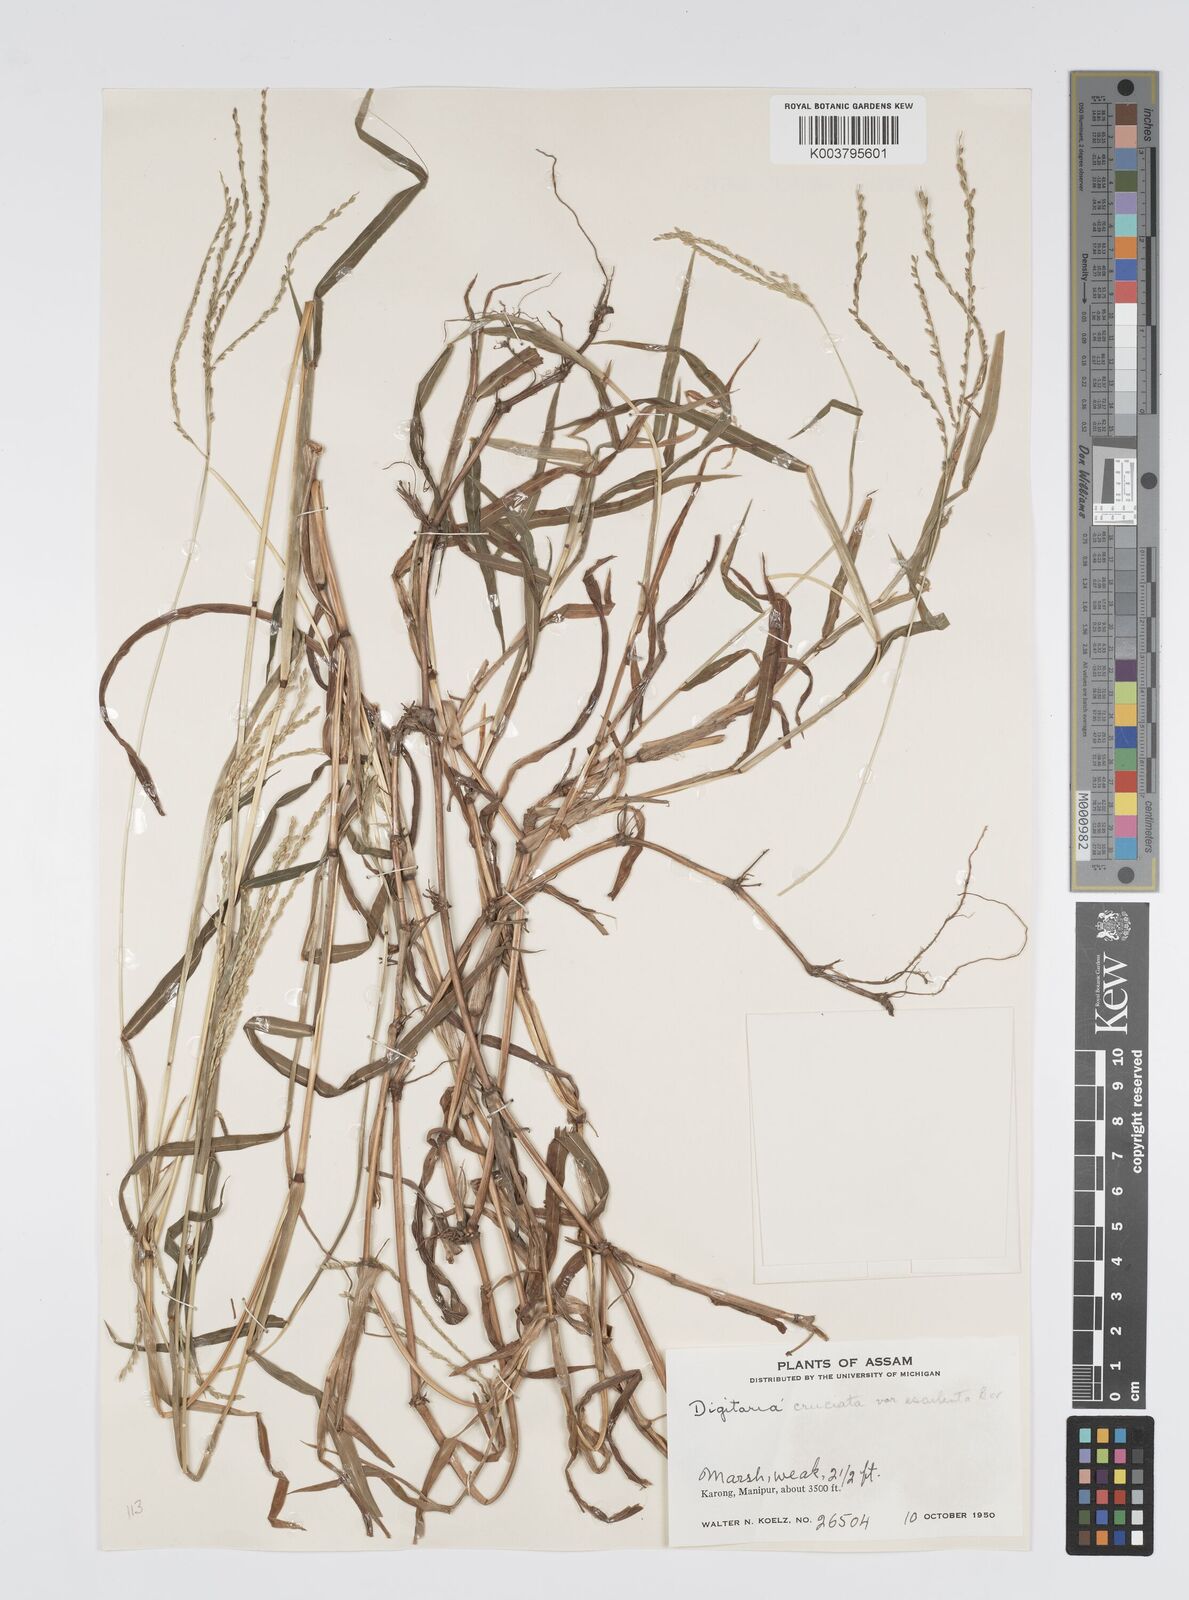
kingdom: Plantae
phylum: Tracheophyta
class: Liliopsida
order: Poales
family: Poaceae
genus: Digitaria
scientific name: Digitaria sanguinalis
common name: Hairy crabgrass
